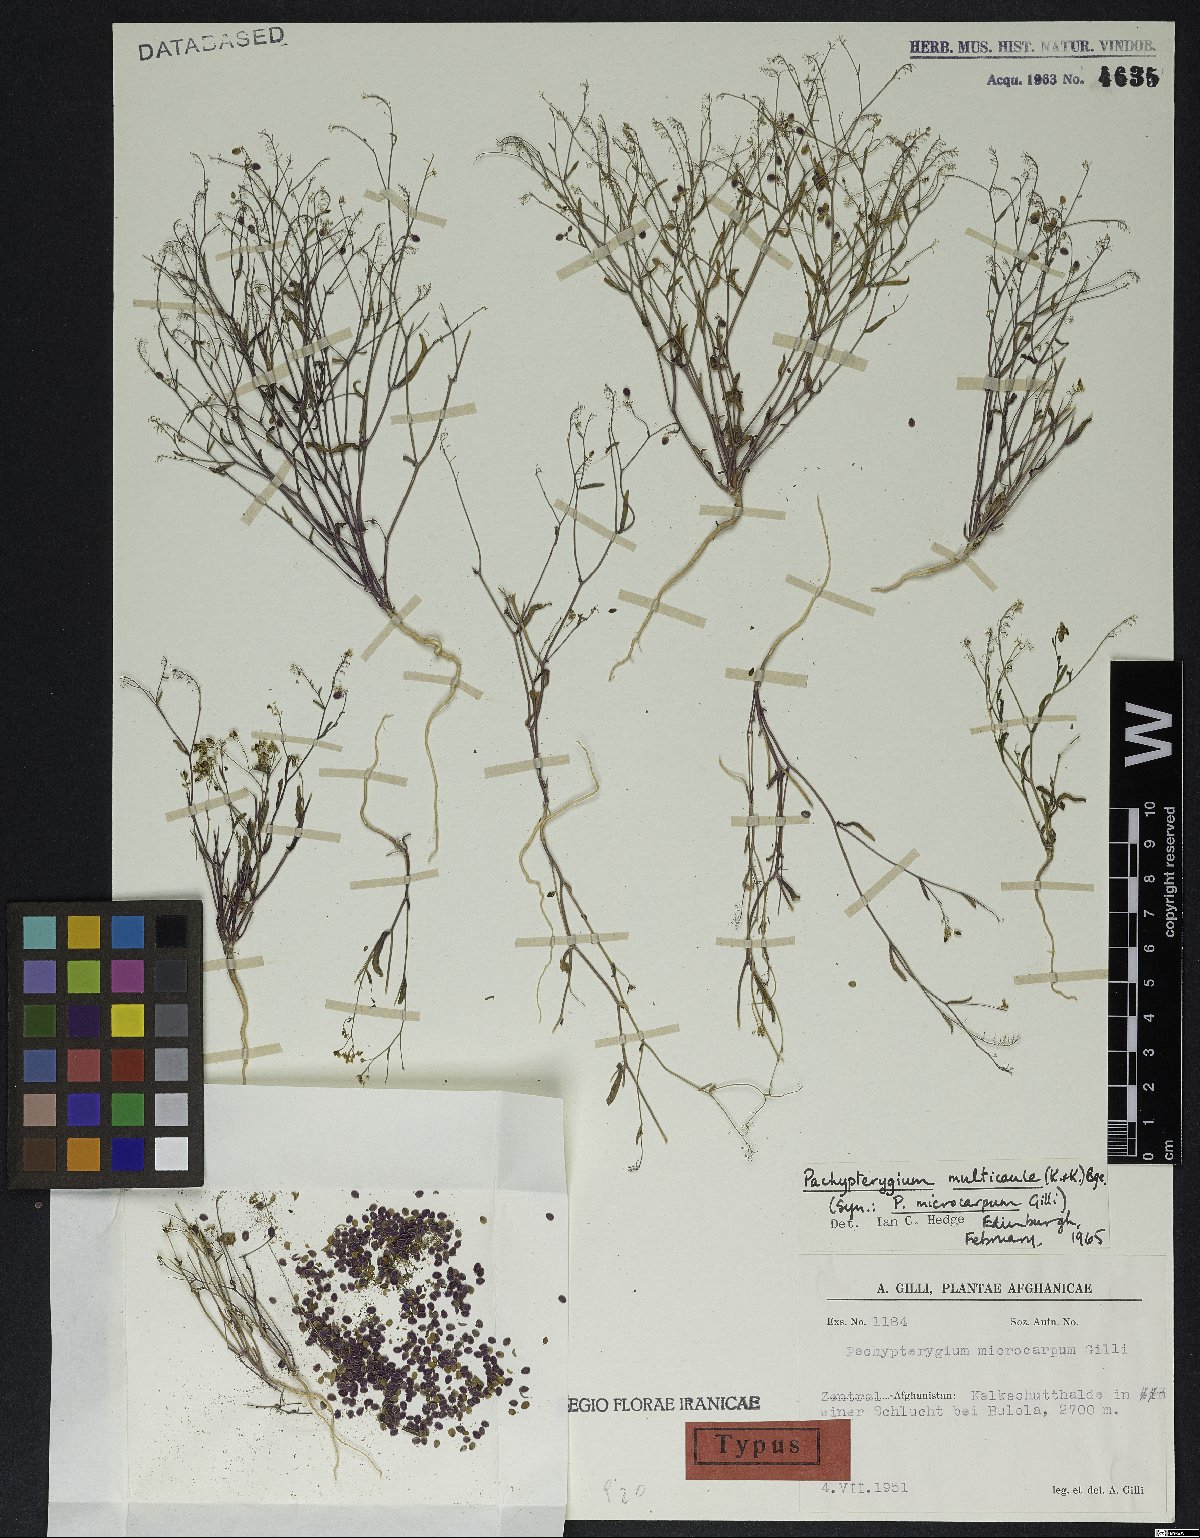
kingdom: Plantae
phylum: Tracheophyta
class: Magnoliopsida
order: Brassicales
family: Brassicaceae
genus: Isatis
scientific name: Isatis multicaulis
